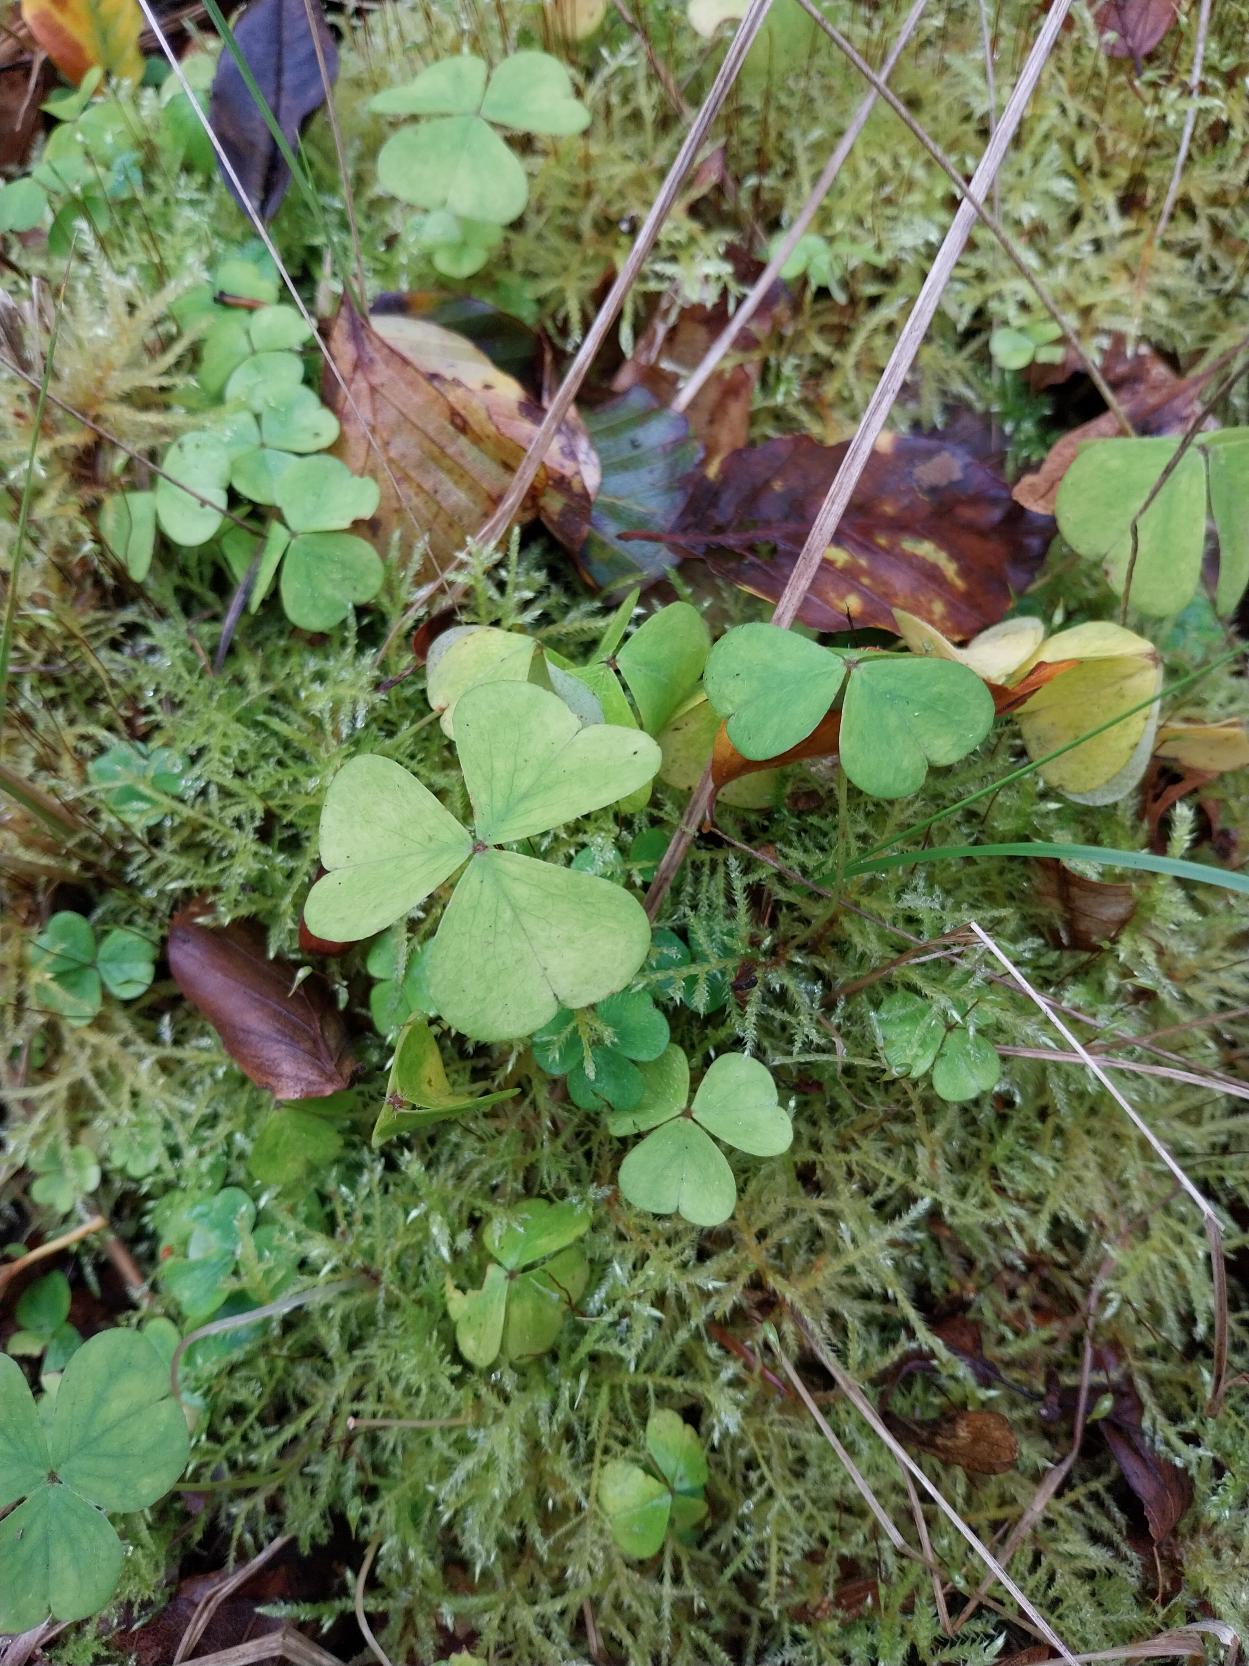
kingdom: Plantae
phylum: Tracheophyta
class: Magnoliopsida
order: Oxalidales
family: Oxalidaceae
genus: Oxalis
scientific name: Oxalis acetosella
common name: Skovsyre
